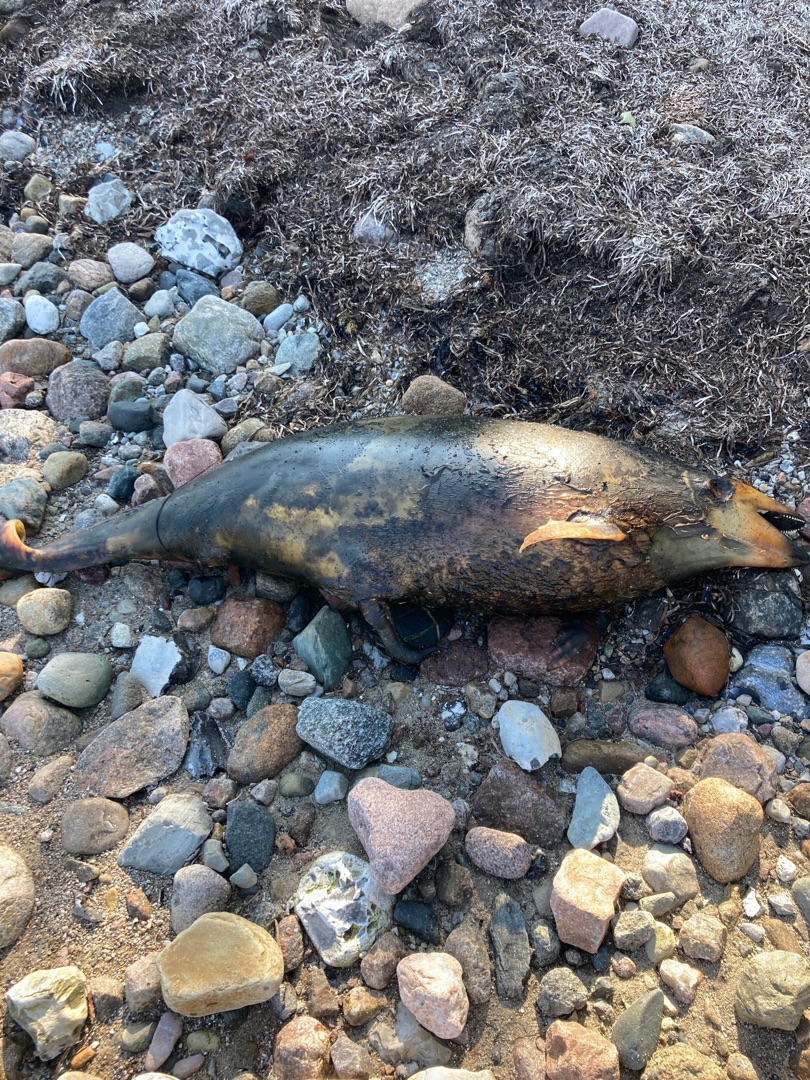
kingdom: Animalia
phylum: Chordata
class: Mammalia
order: Cetacea
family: Phocoenidae
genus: Phocoena
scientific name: Phocoena phocoena
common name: Marsvin
